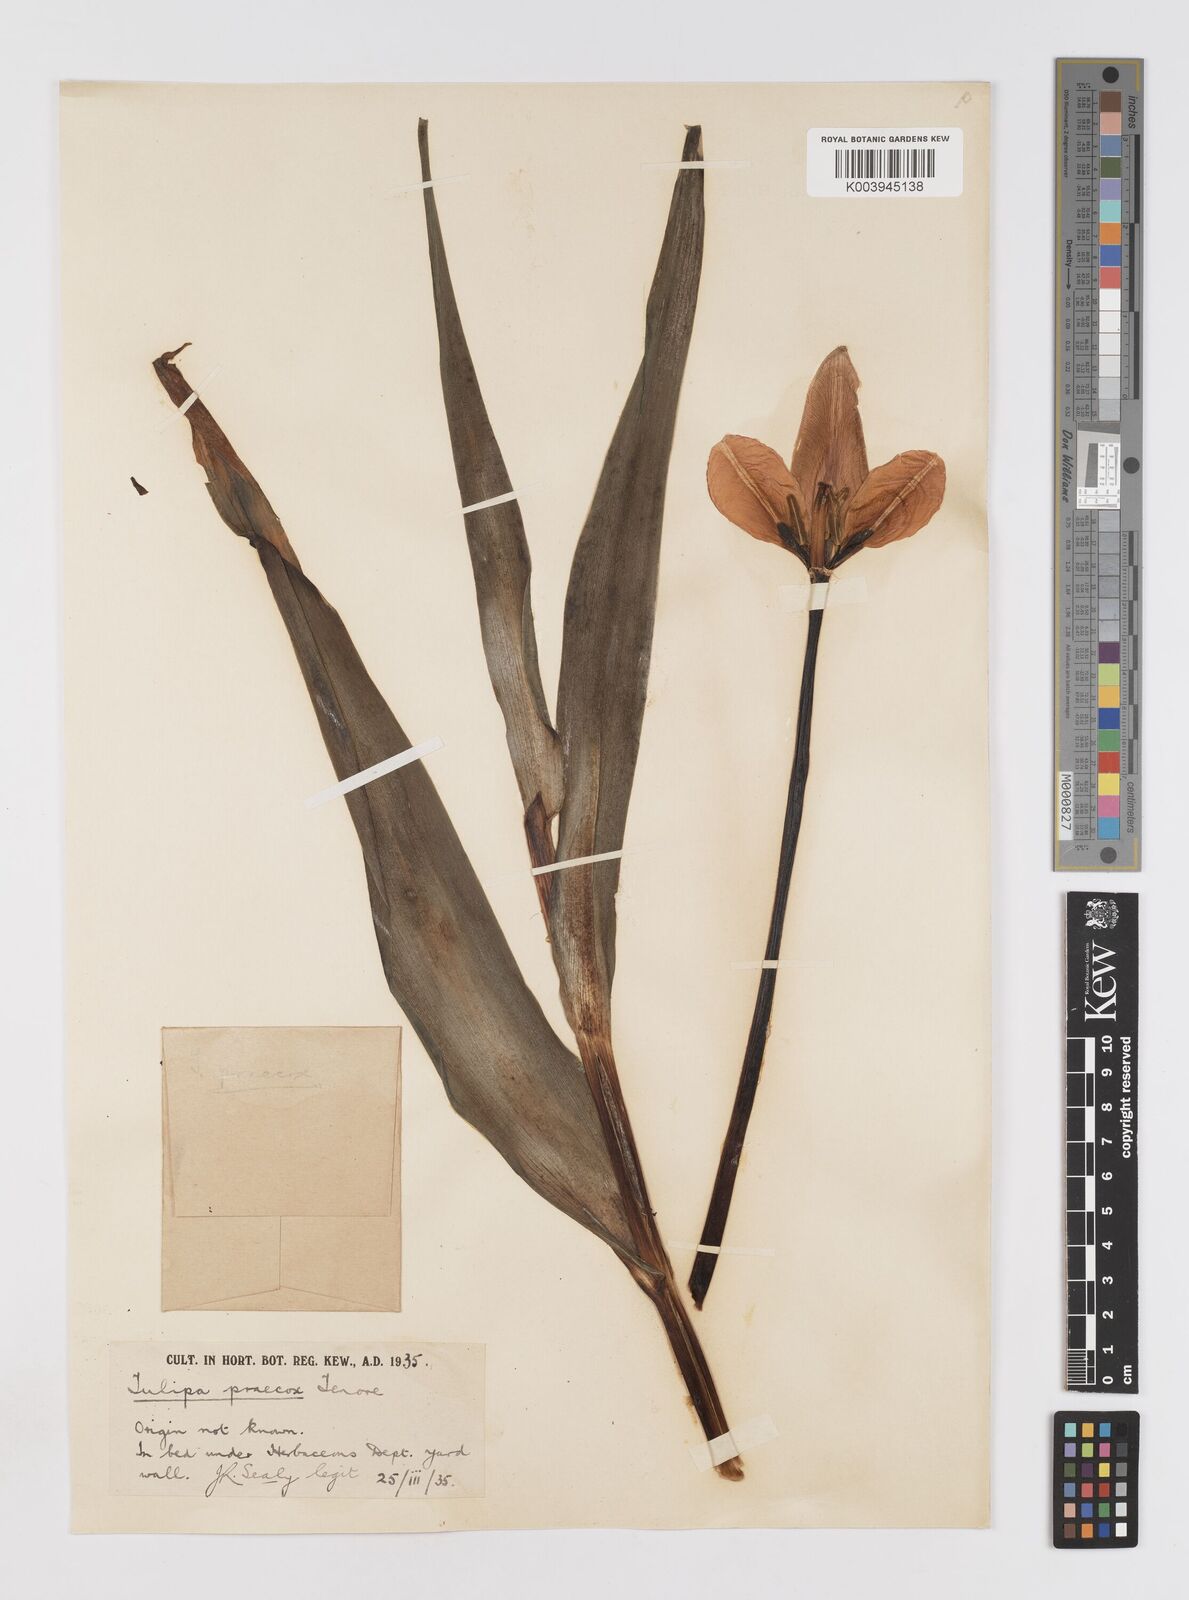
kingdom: Plantae
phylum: Tracheophyta
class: Liliopsida
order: Liliales
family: Liliaceae
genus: Tulipa
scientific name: Tulipa
